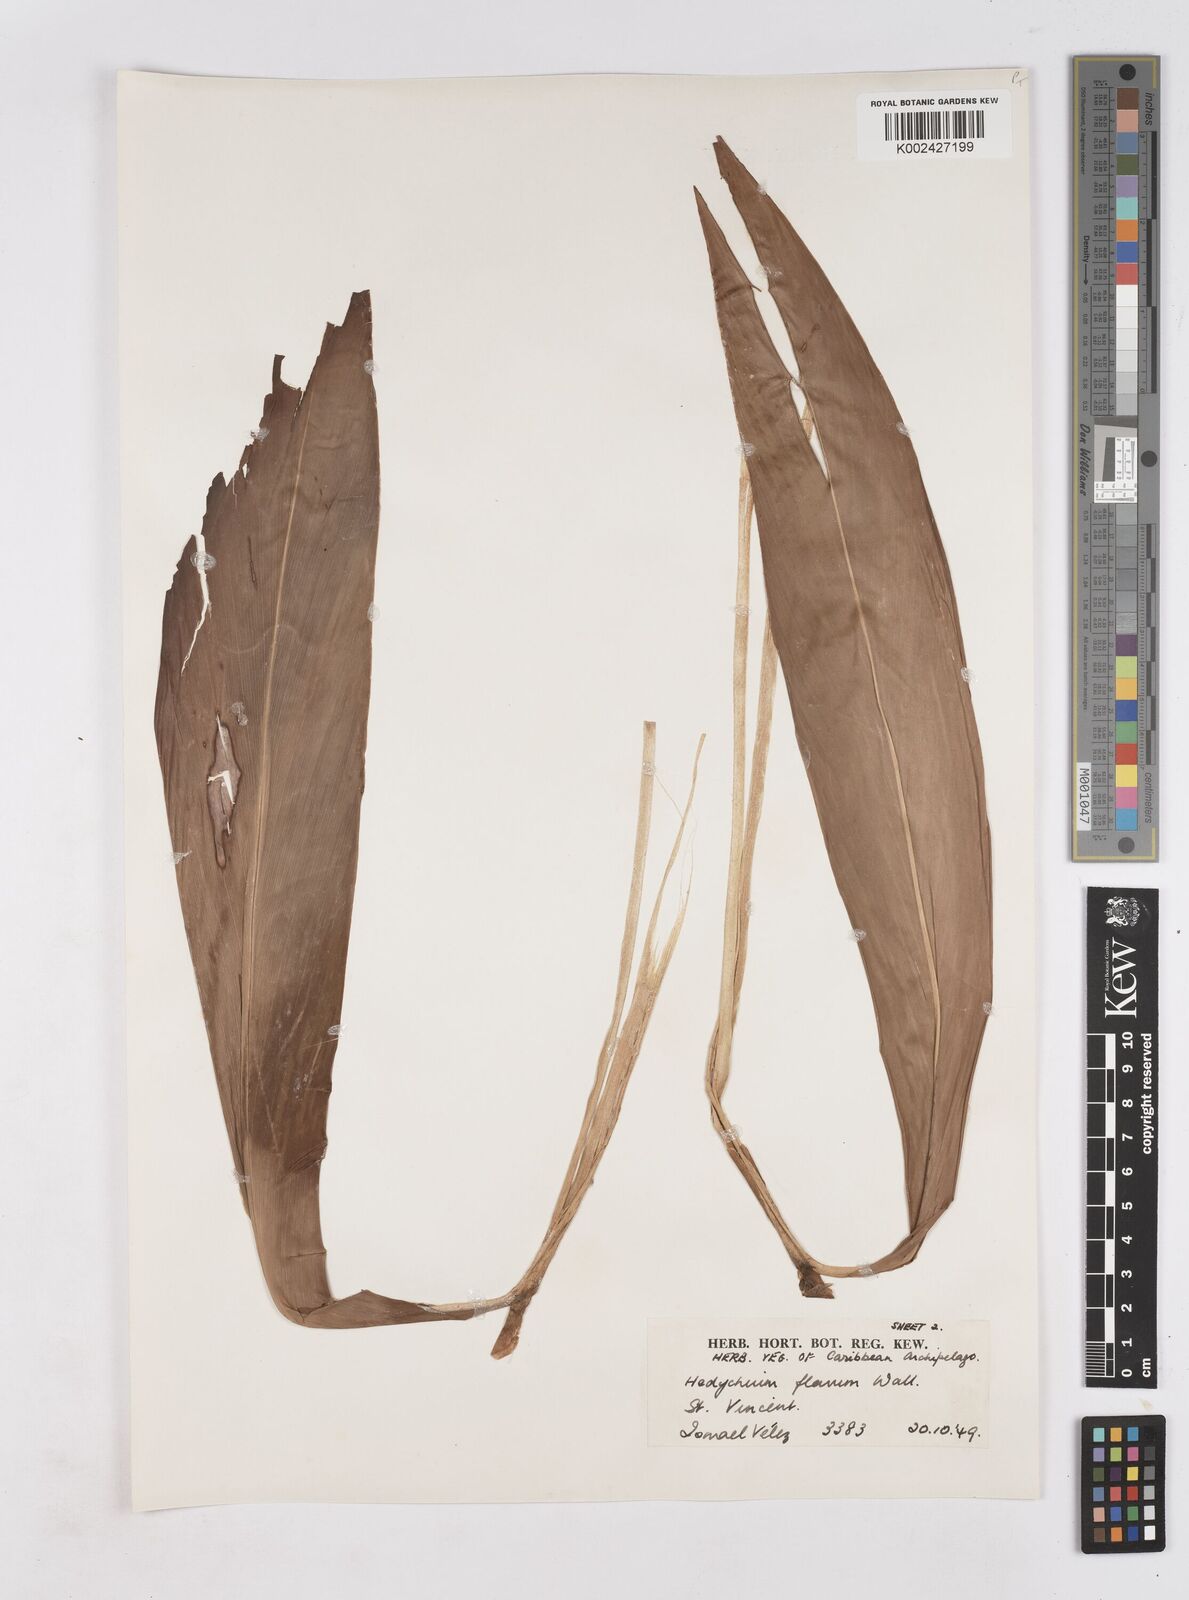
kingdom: Plantae
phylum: Tracheophyta
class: Liliopsida
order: Zingiberales
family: Zingiberaceae
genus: Hedychium
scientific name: Hedychium flavum
